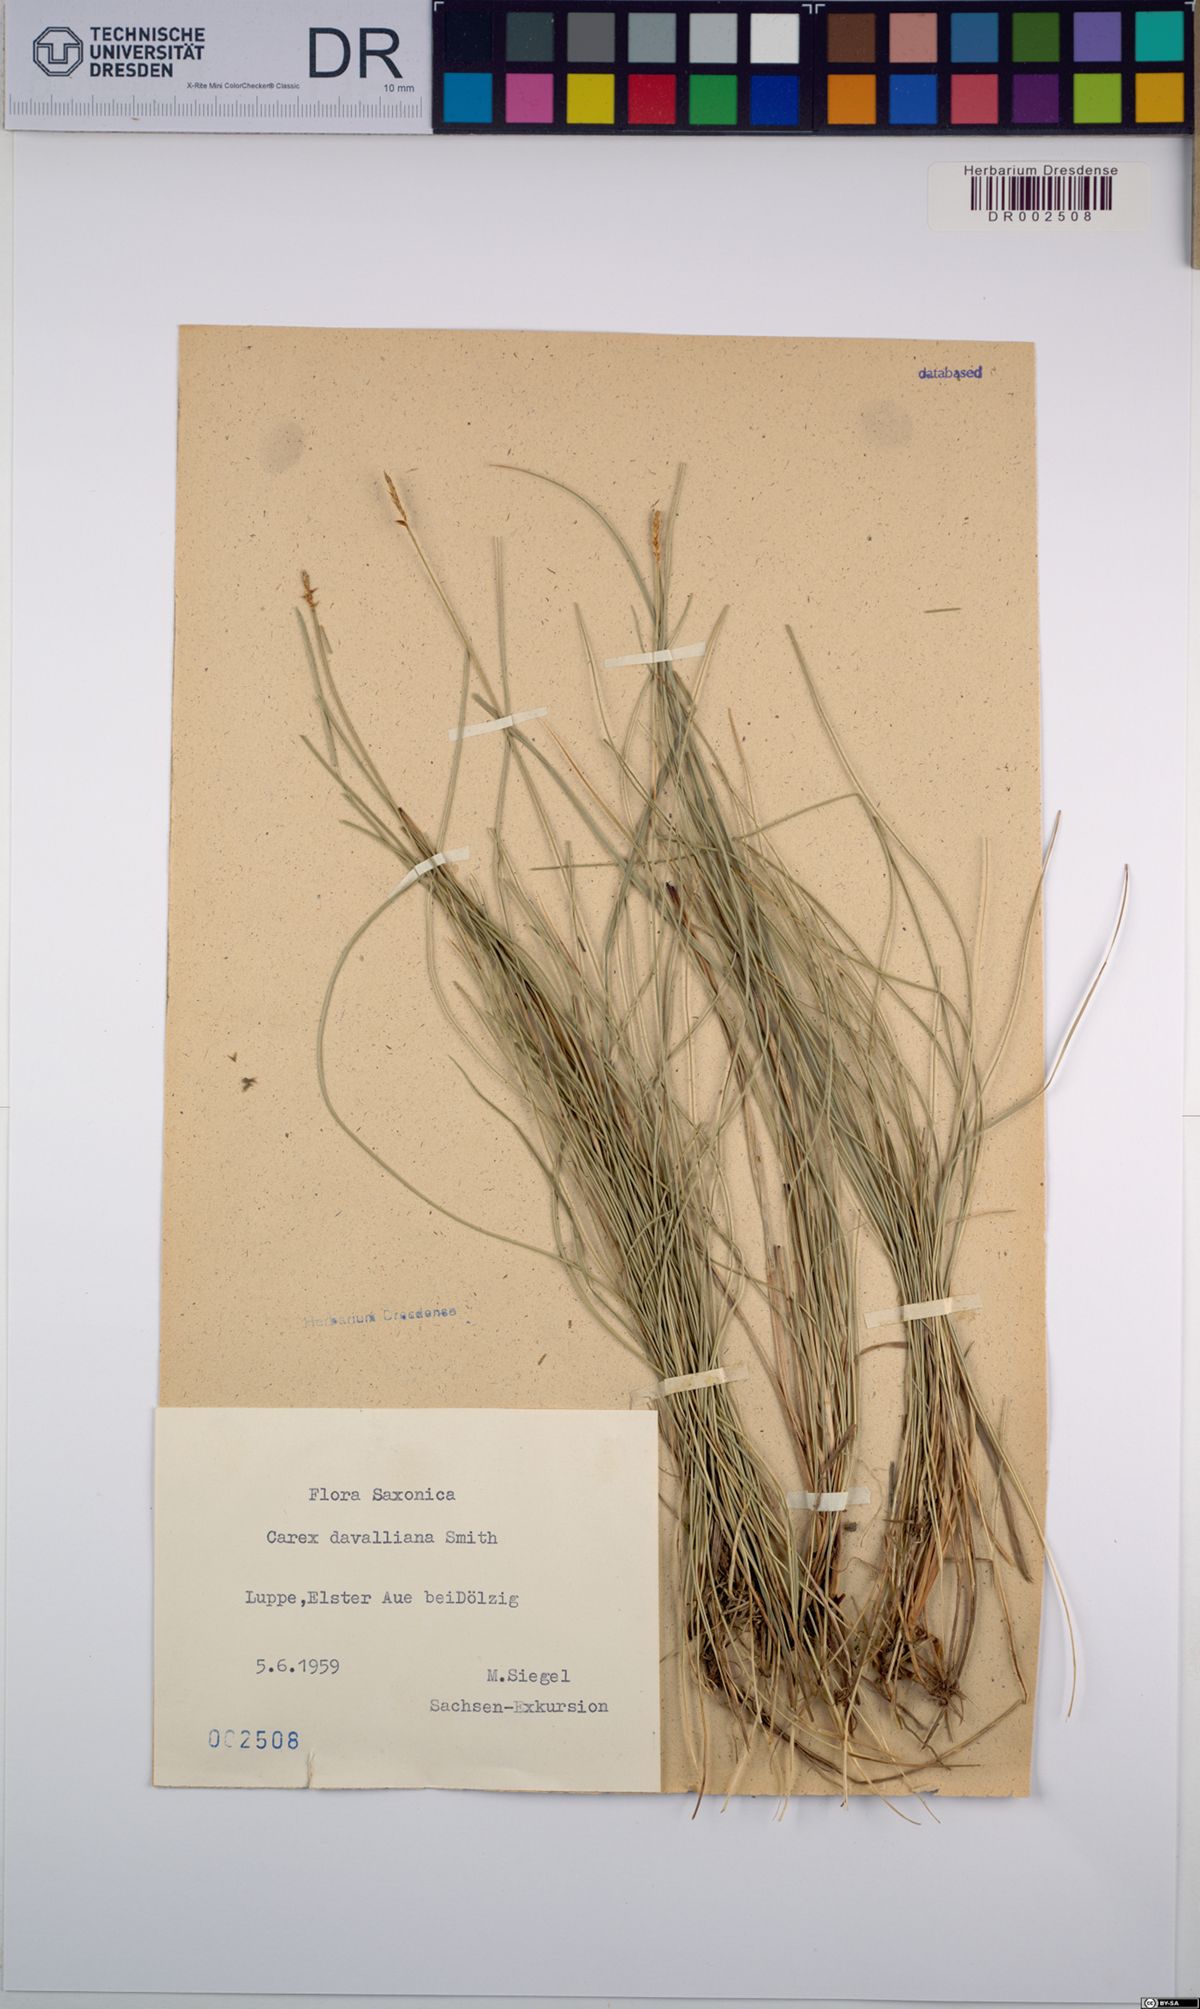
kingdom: Plantae
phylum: Tracheophyta
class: Liliopsida
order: Poales
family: Cyperaceae
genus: Carex
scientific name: Carex davalliana
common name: Davall's sedge
